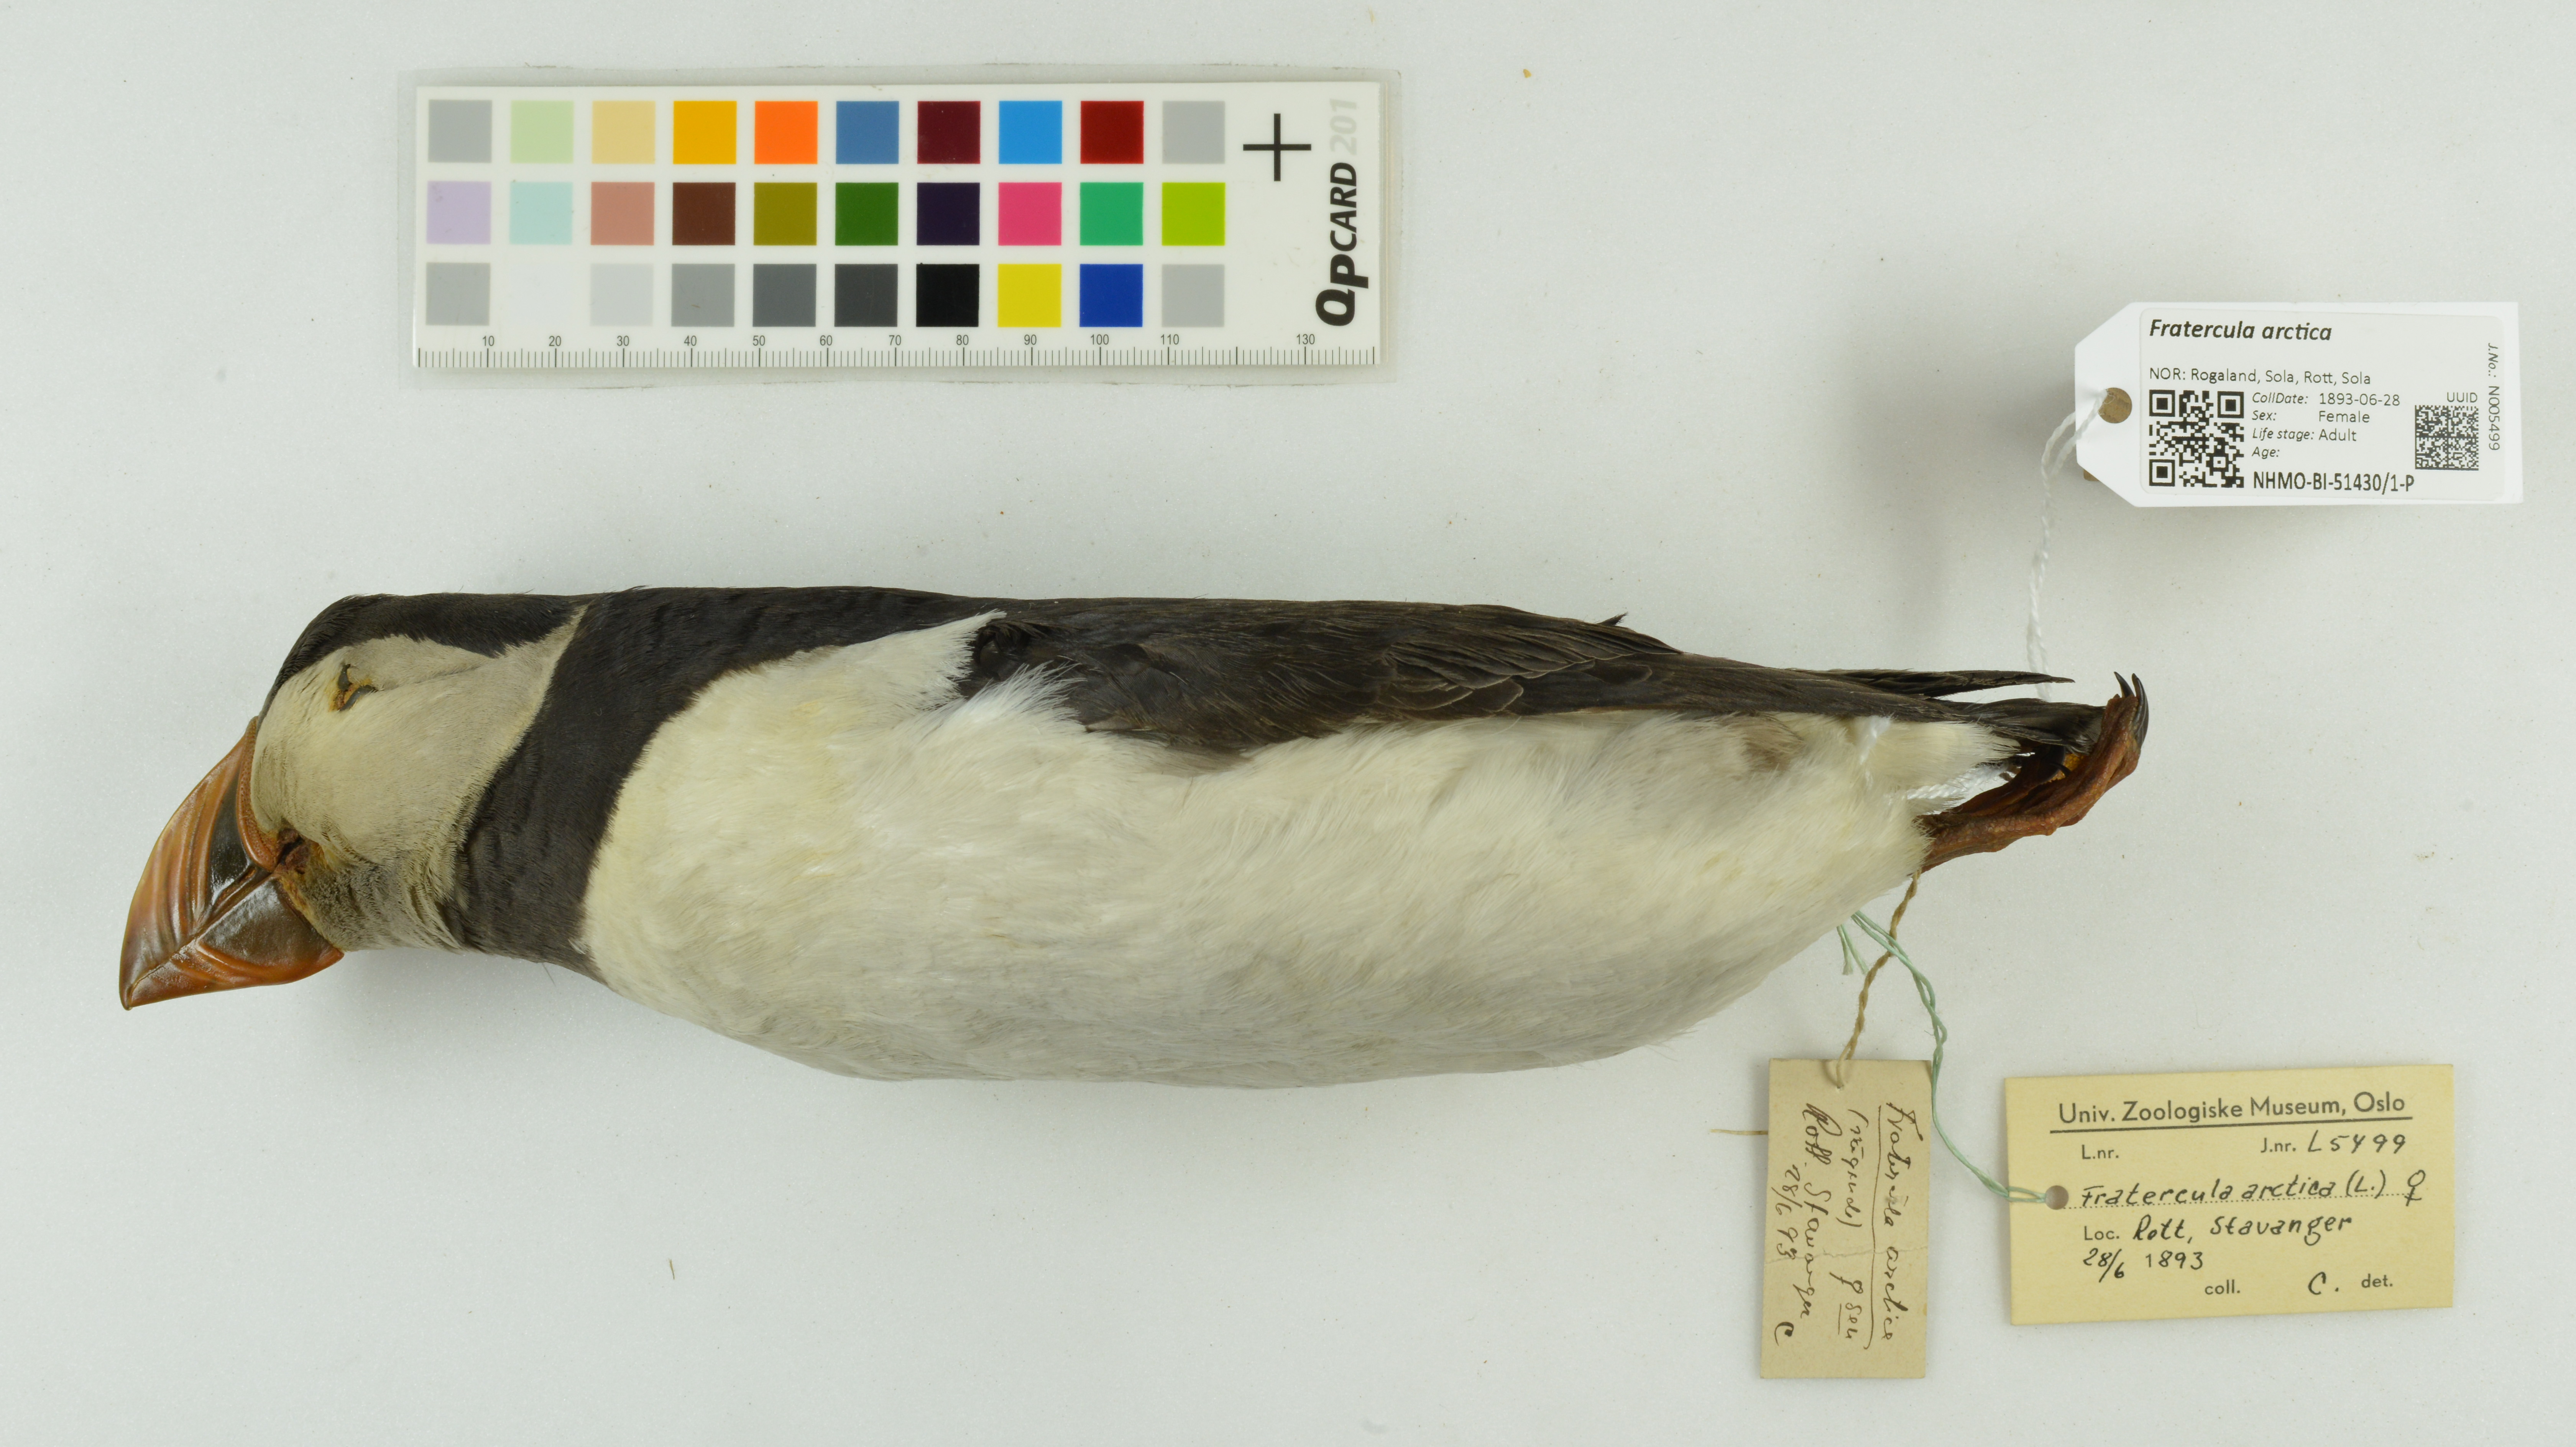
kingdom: Animalia
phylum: Chordata
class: Aves
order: Charadriiformes
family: Alcidae
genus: Fratercula
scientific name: Fratercula arctica
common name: Atlantic puffin
